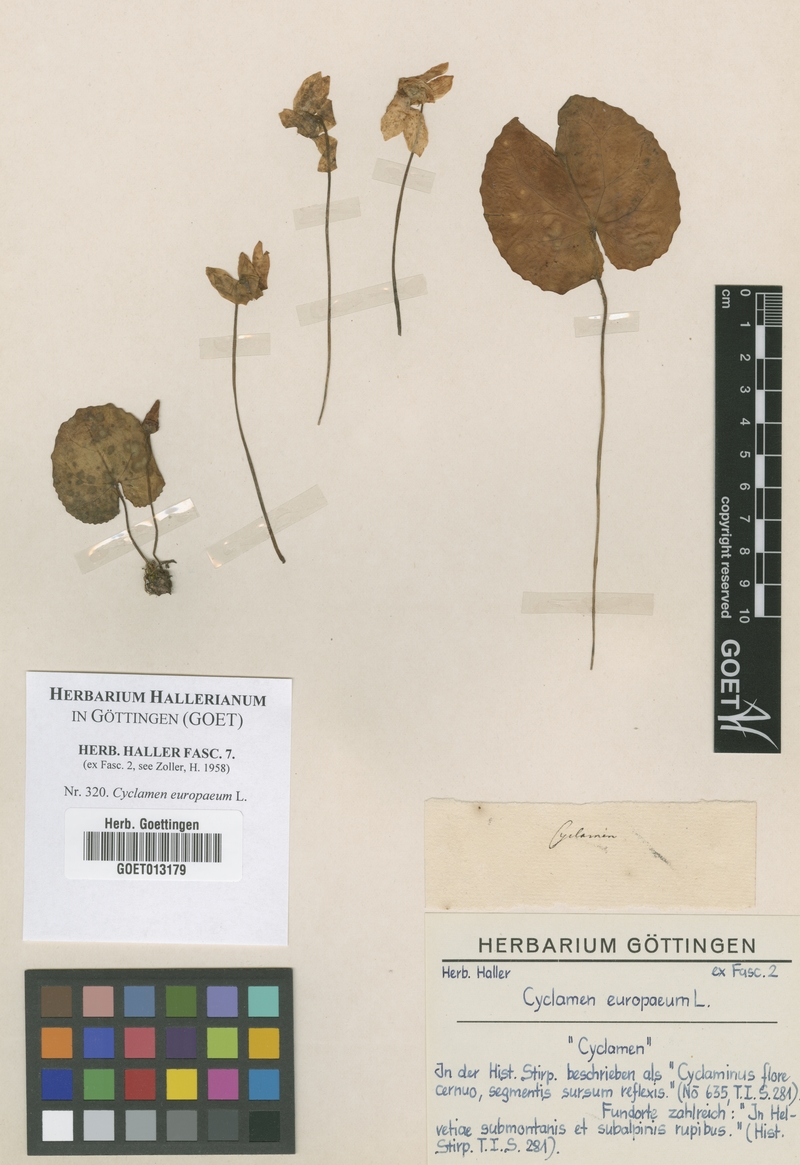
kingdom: Plantae
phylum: Tracheophyta
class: Magnoliopsida
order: Ericales
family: Primulaceae
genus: Cyclamen
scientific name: Cyclamen purpurascens
